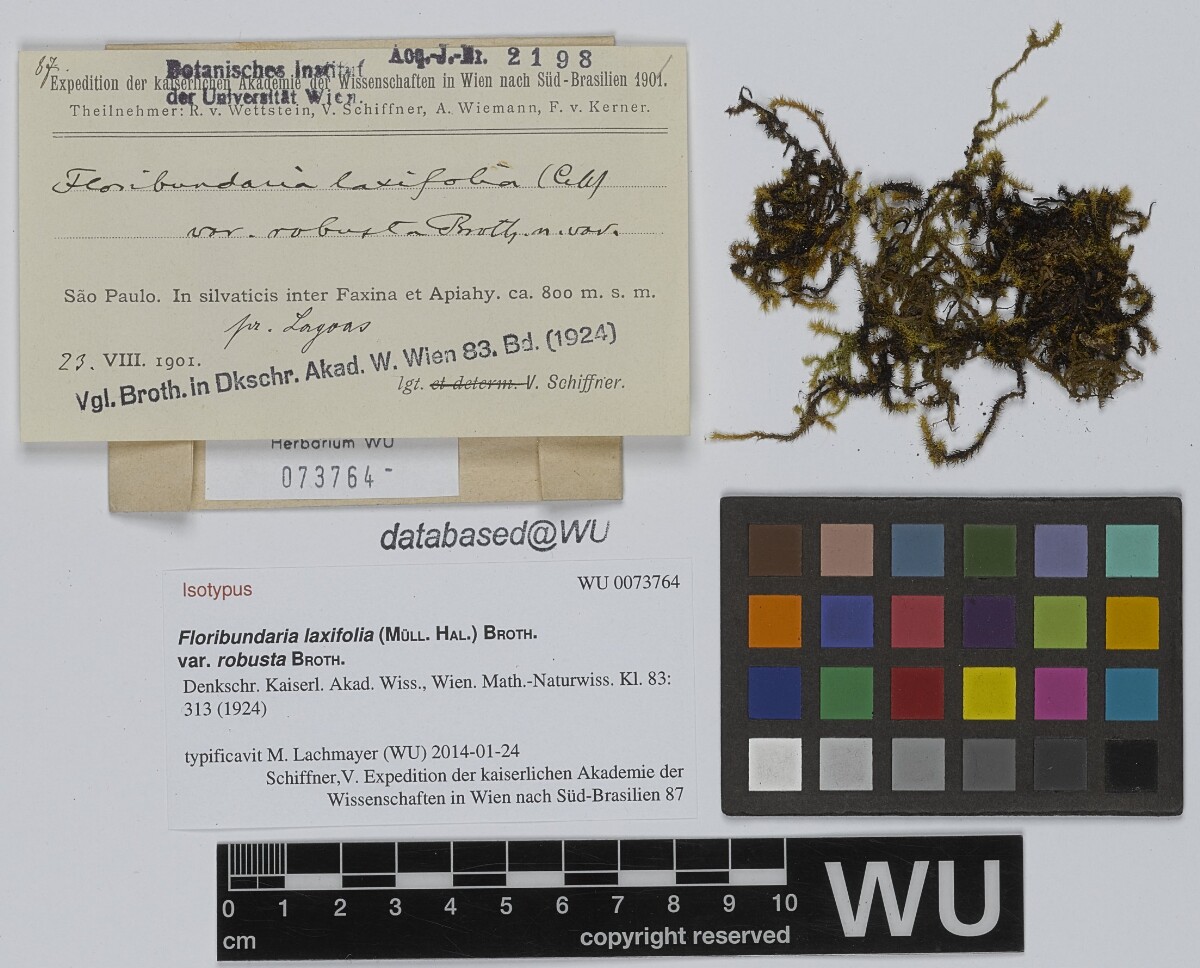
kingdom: Plantae
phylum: Bryophyta
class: Bryopsida
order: Hypnales
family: Meteoriaceae
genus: Floribundaria
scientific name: Floribundaria flaccida
